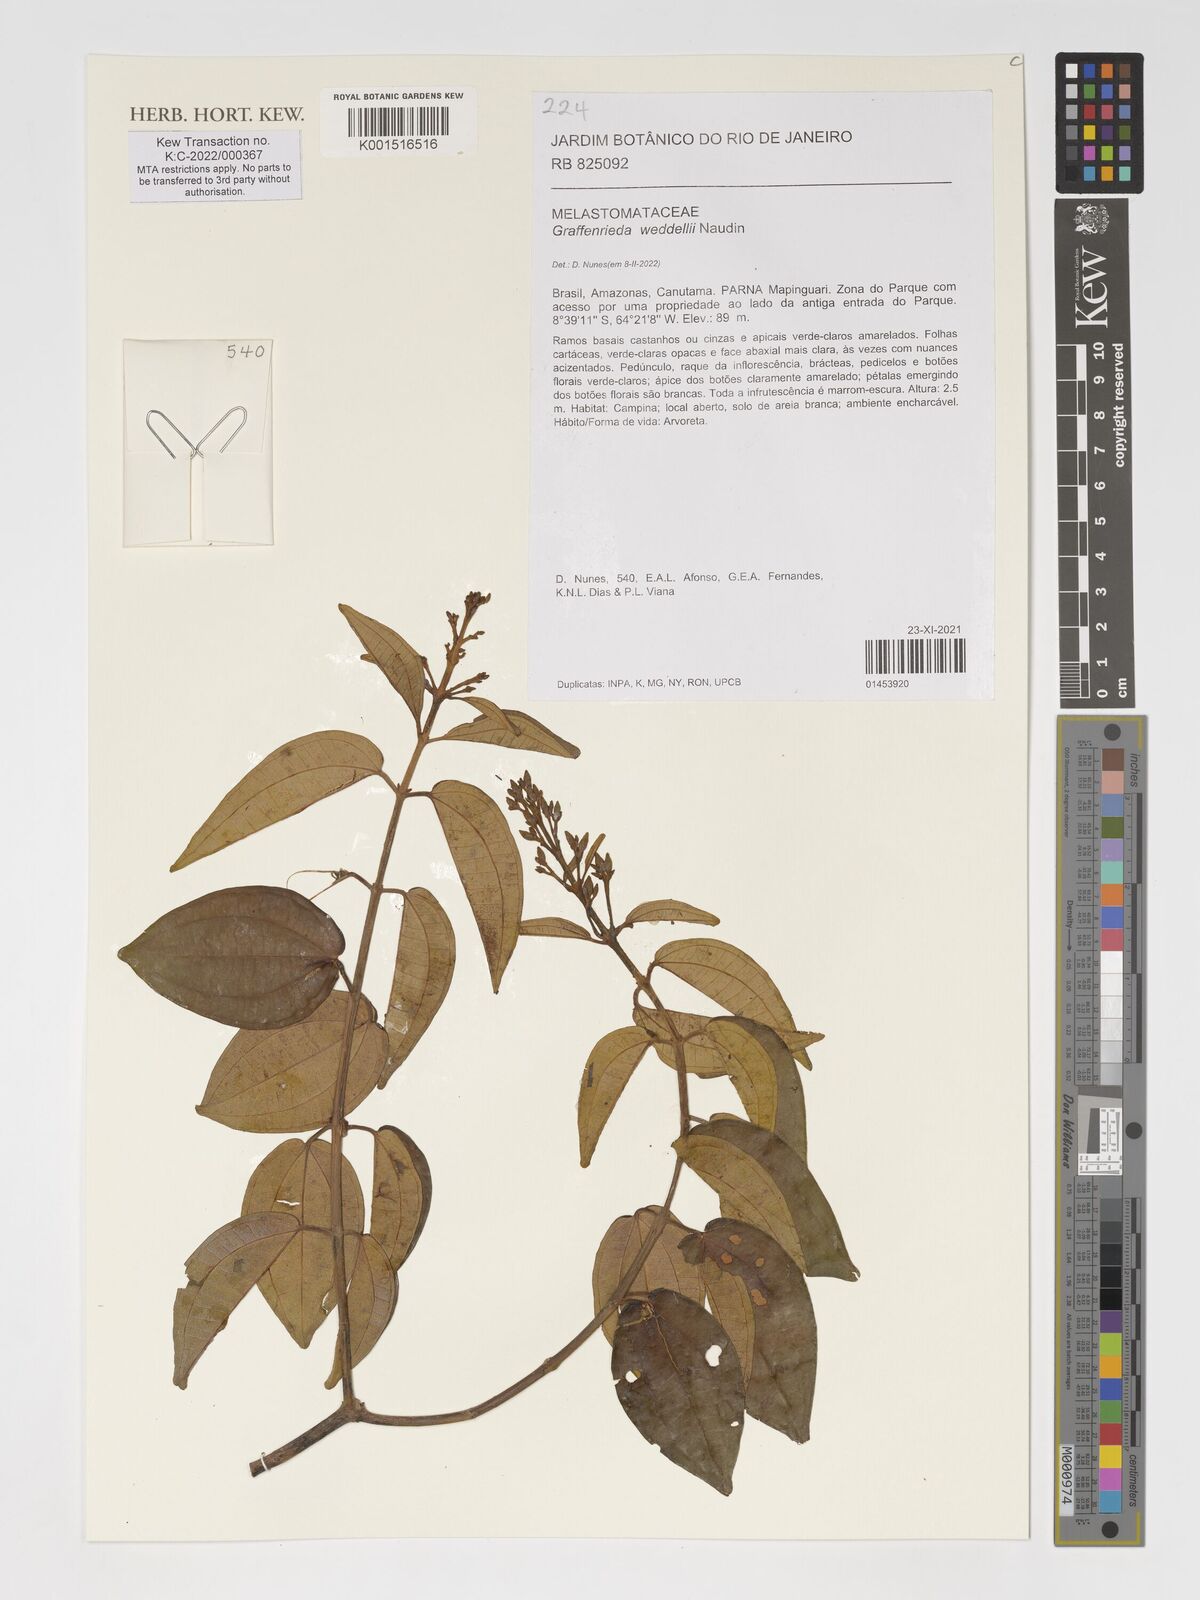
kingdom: Plantae
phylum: Tracheophyta
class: Magnoliopsida
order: Myrtales
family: Melastomataceae
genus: Graffenrieda
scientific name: Graffenrieda weddellii
